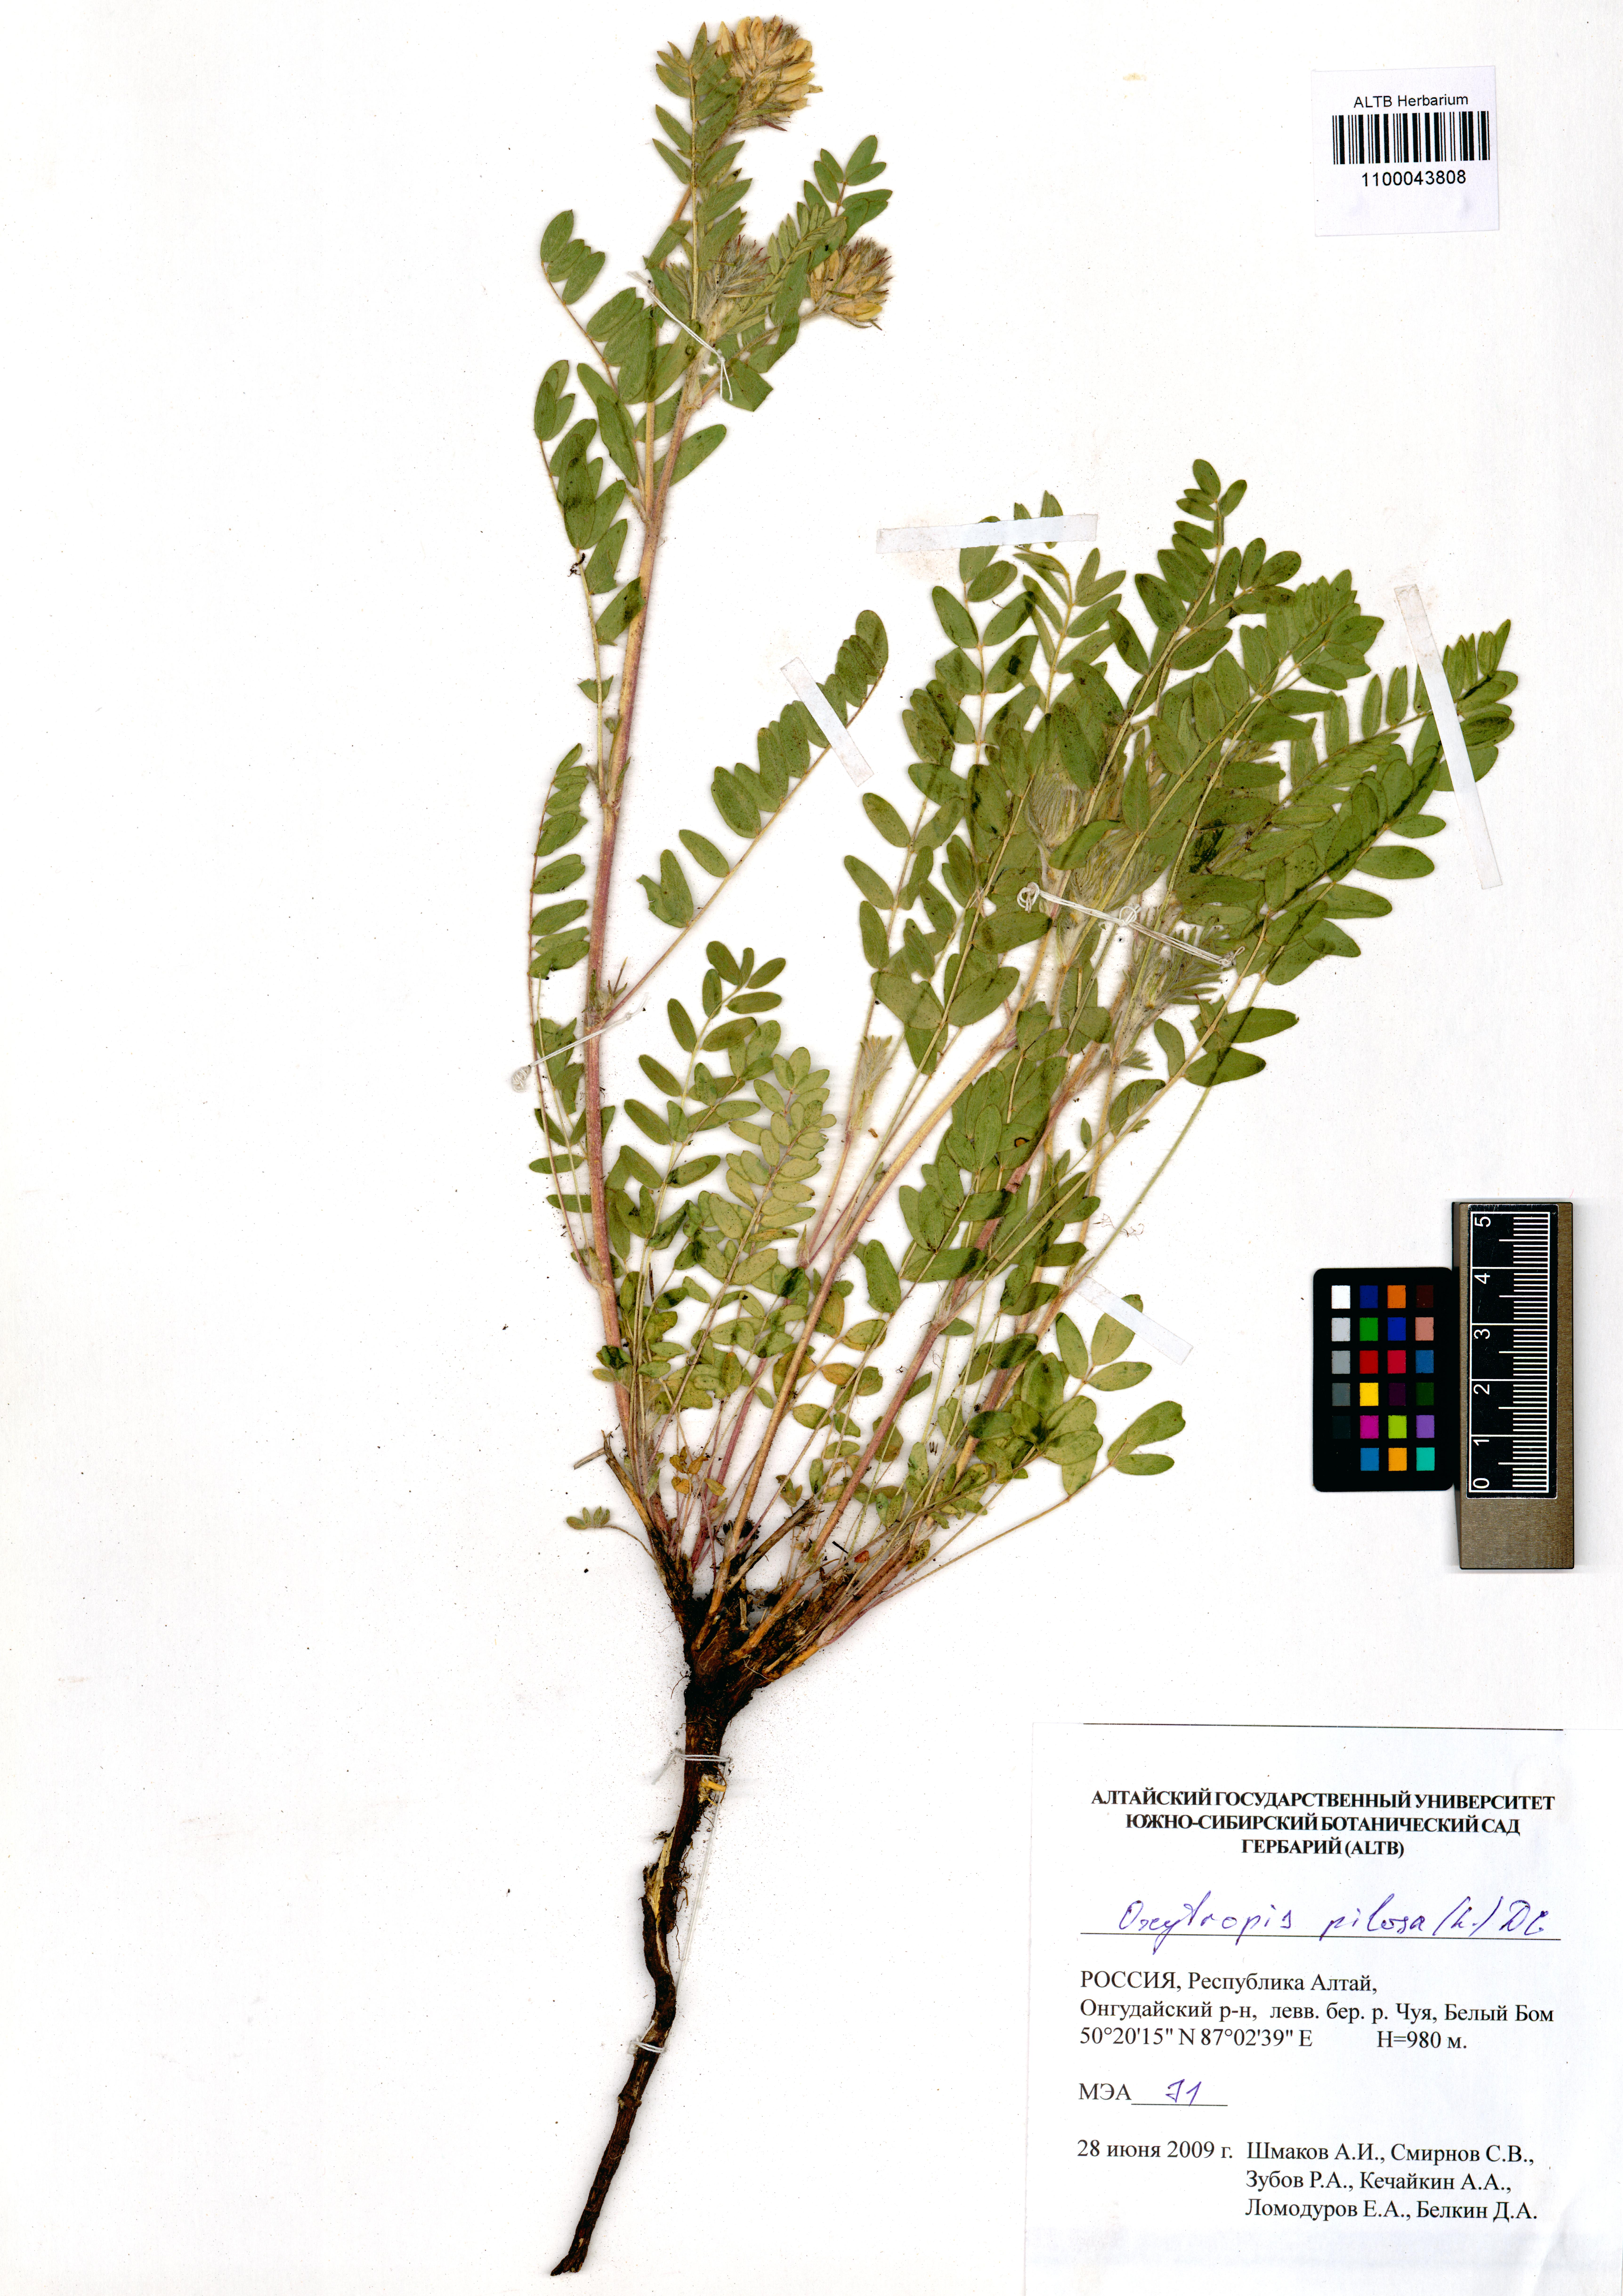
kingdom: Plantae
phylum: Tracheophyta
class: Magnoliopsida
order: Fabales
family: Fabaceae
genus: Oxytropis
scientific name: Oxytropis pilosa
